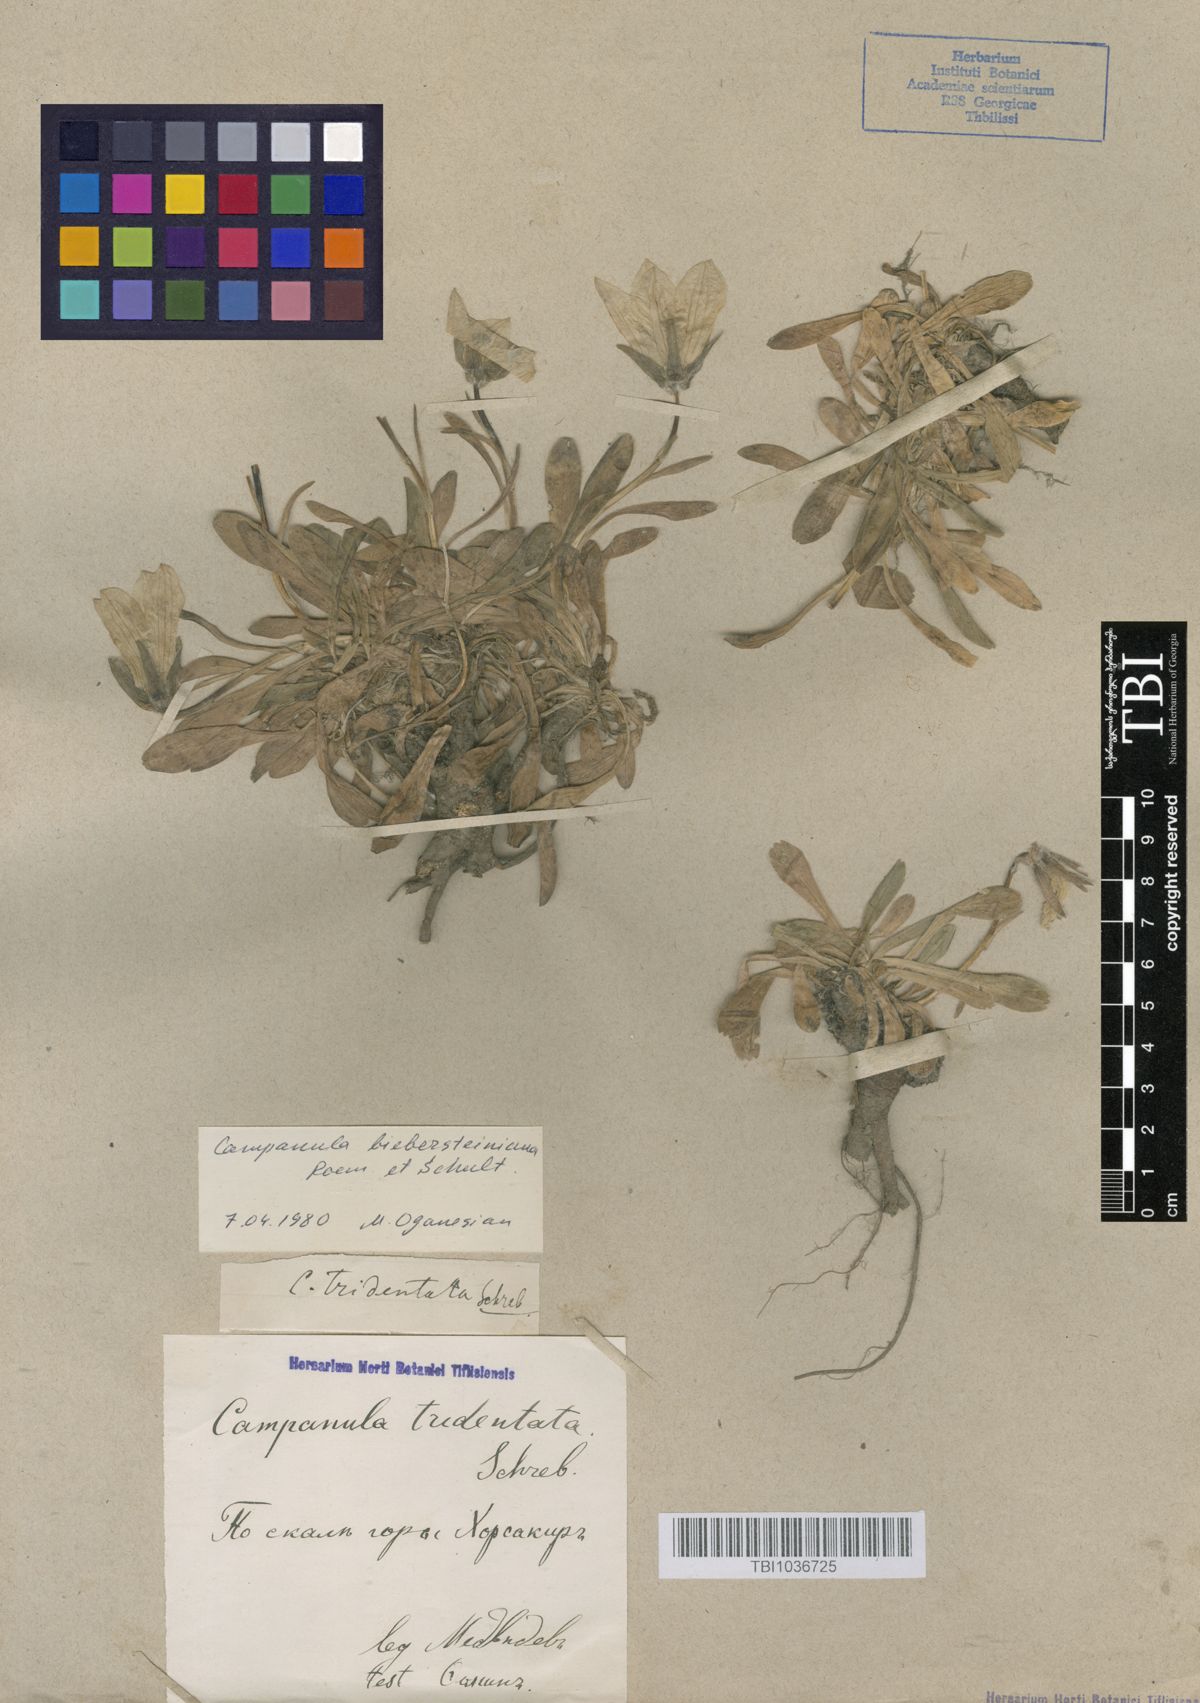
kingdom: Plantae
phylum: Tracheophyta
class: Magnoliopsida
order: Asterales
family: Campanulaceae
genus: Campanula
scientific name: Campanula tridentata
